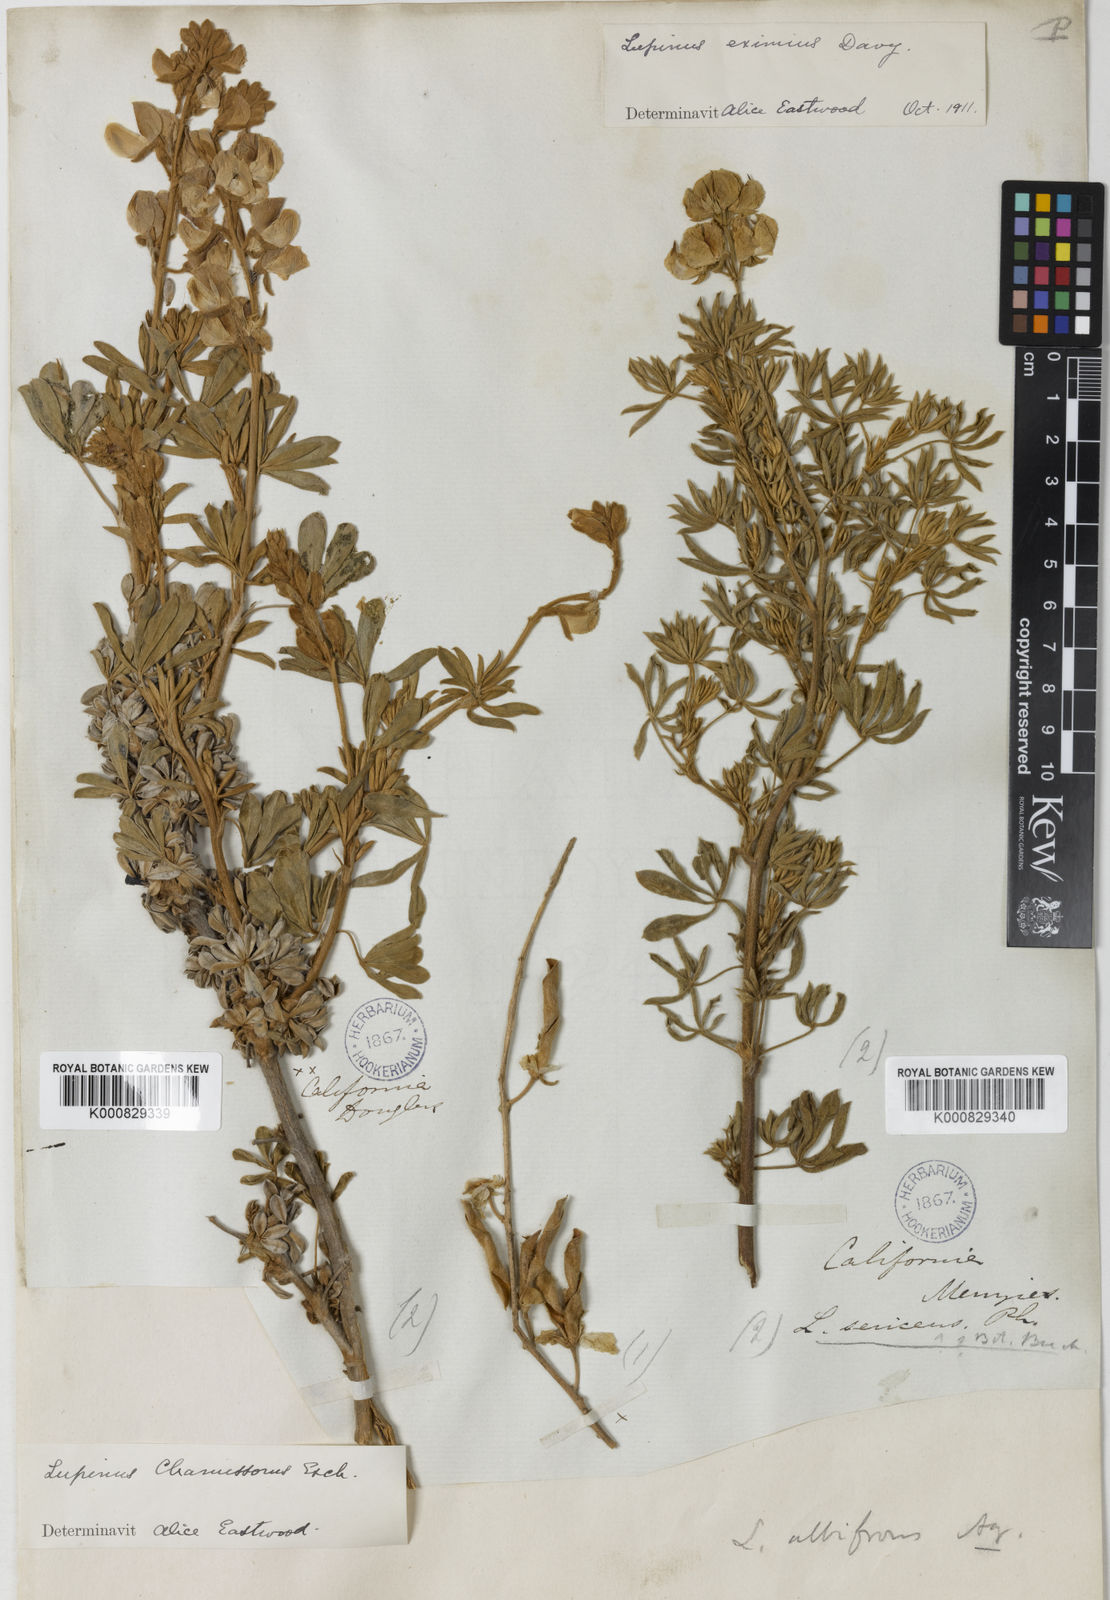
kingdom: Plantae
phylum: Tracheophyta
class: Magnoliopsida
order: Fabales
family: Fabaceae
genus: Lupinus
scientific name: Lupinus chamissonis
